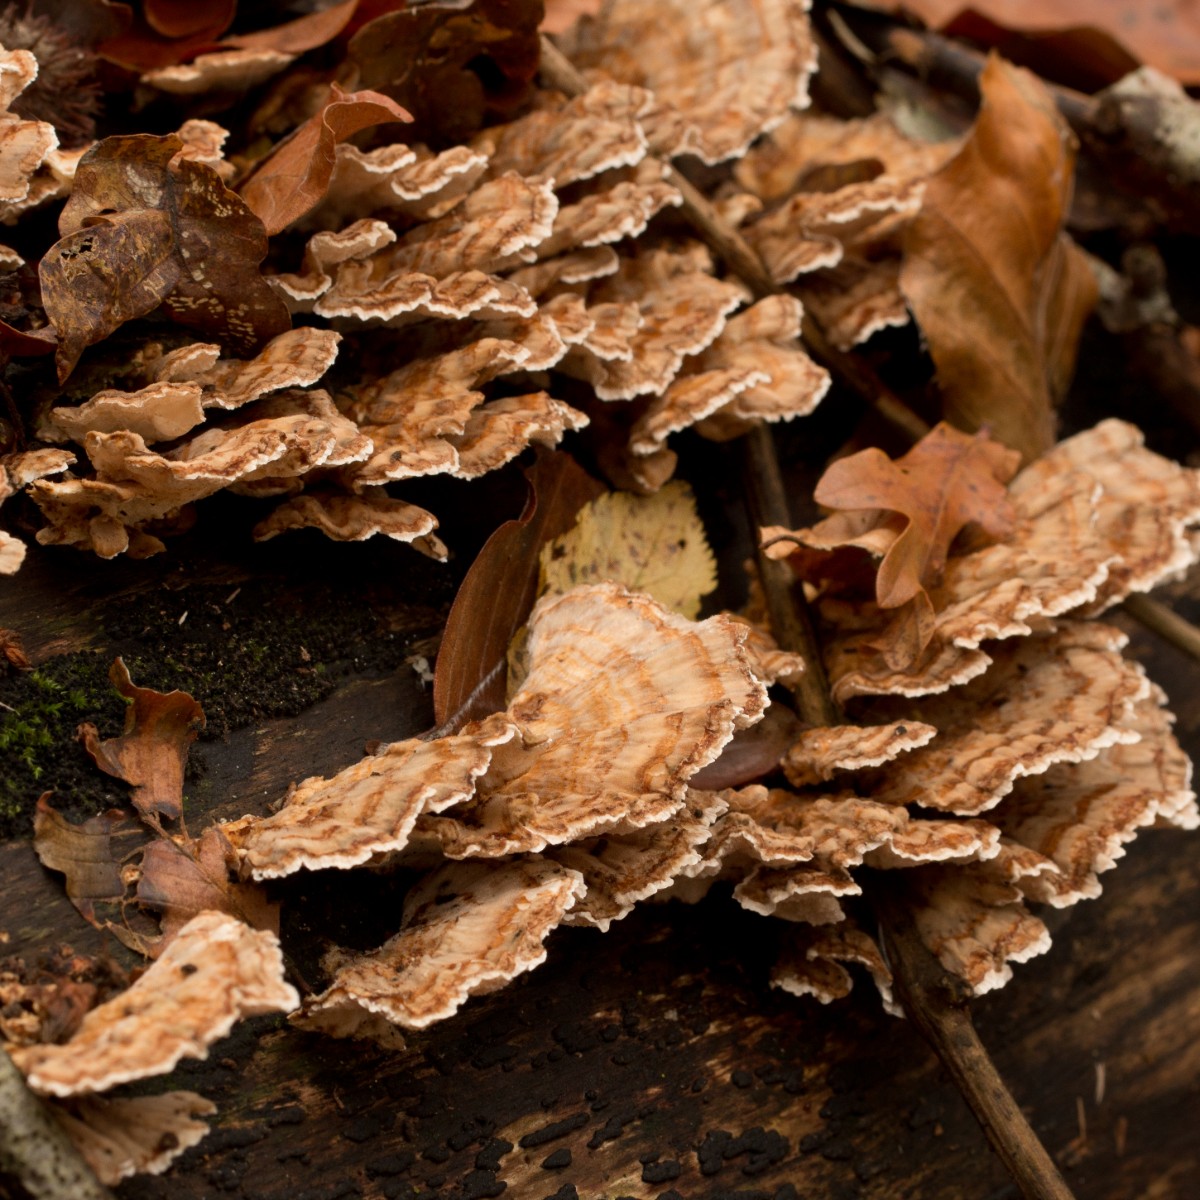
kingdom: Fungi
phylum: Basidiomycota
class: Agaricomycetes
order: Polyporales
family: Polyporaceae
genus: Trametes
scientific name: Trametes versicolor
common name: broget læderporesvamp
